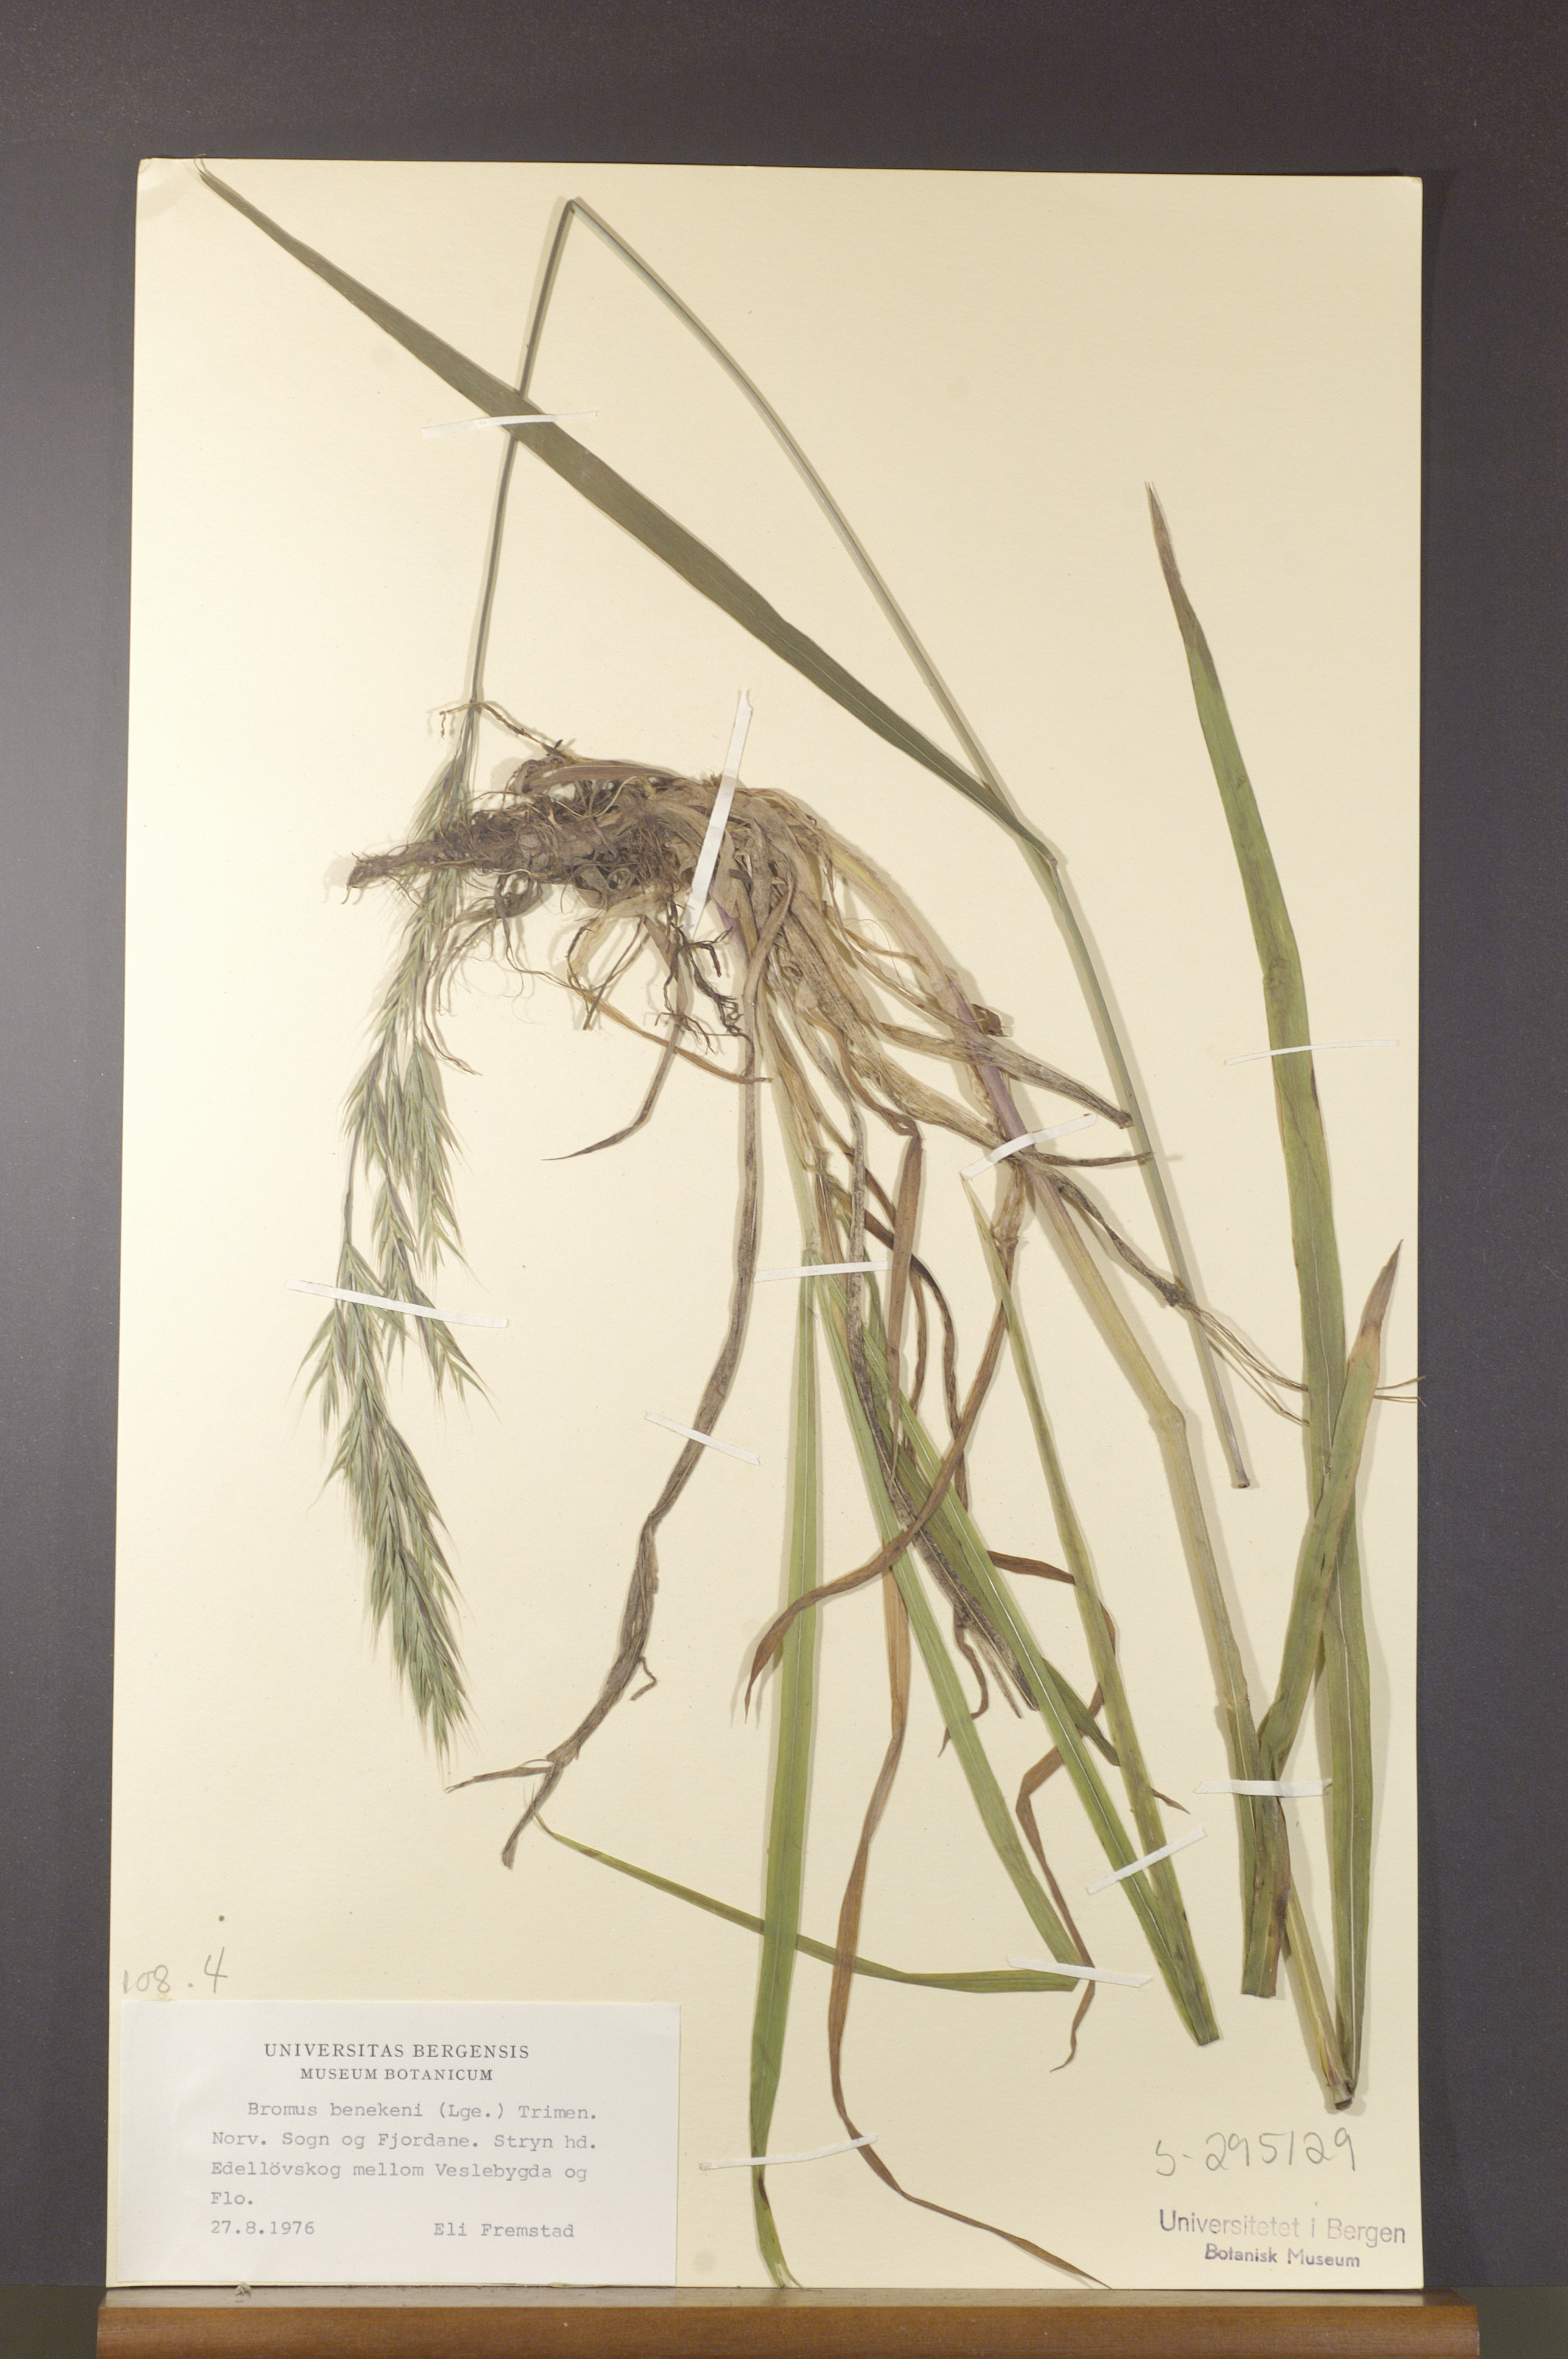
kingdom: Plantae
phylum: Tracheophyta
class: Liliopsida
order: Poales
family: Poaceae
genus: Bromus
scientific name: Bromus benekenii
